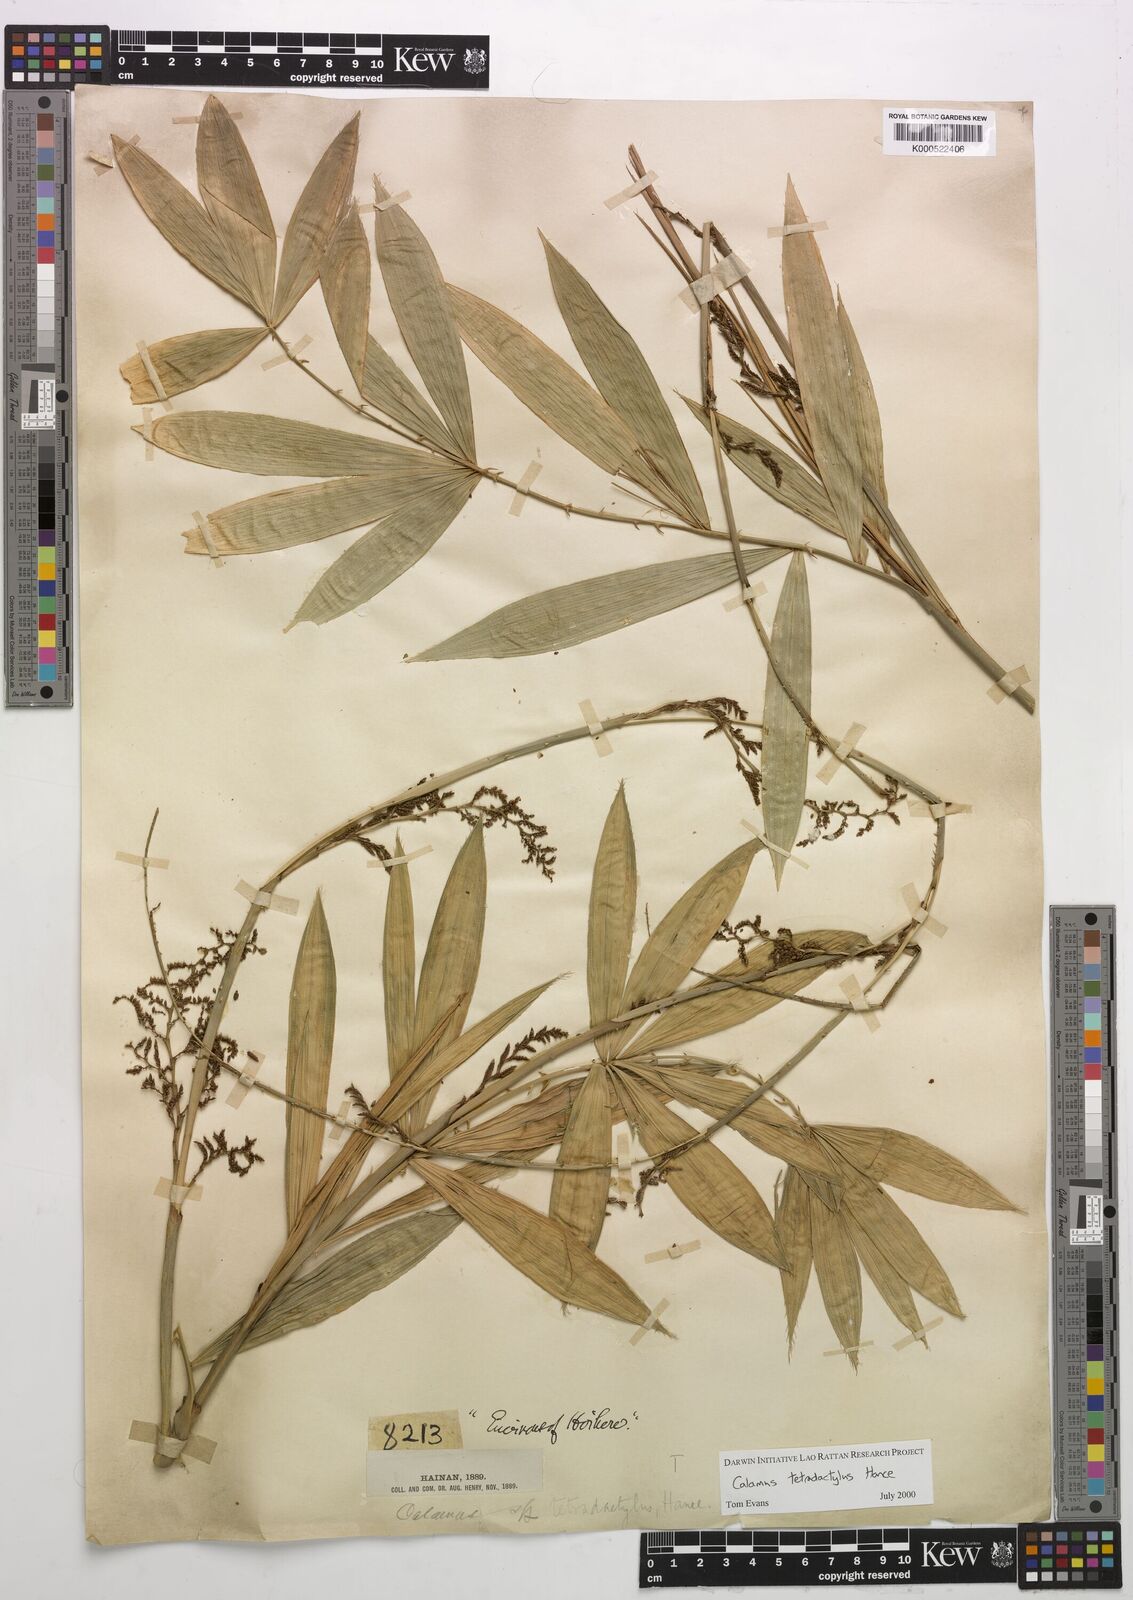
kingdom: Plantae
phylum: Tracheophyta
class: Liliopsida
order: Arecales
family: Arecaceae
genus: Calamus
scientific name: Calamus tetradactylus
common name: White rattan
